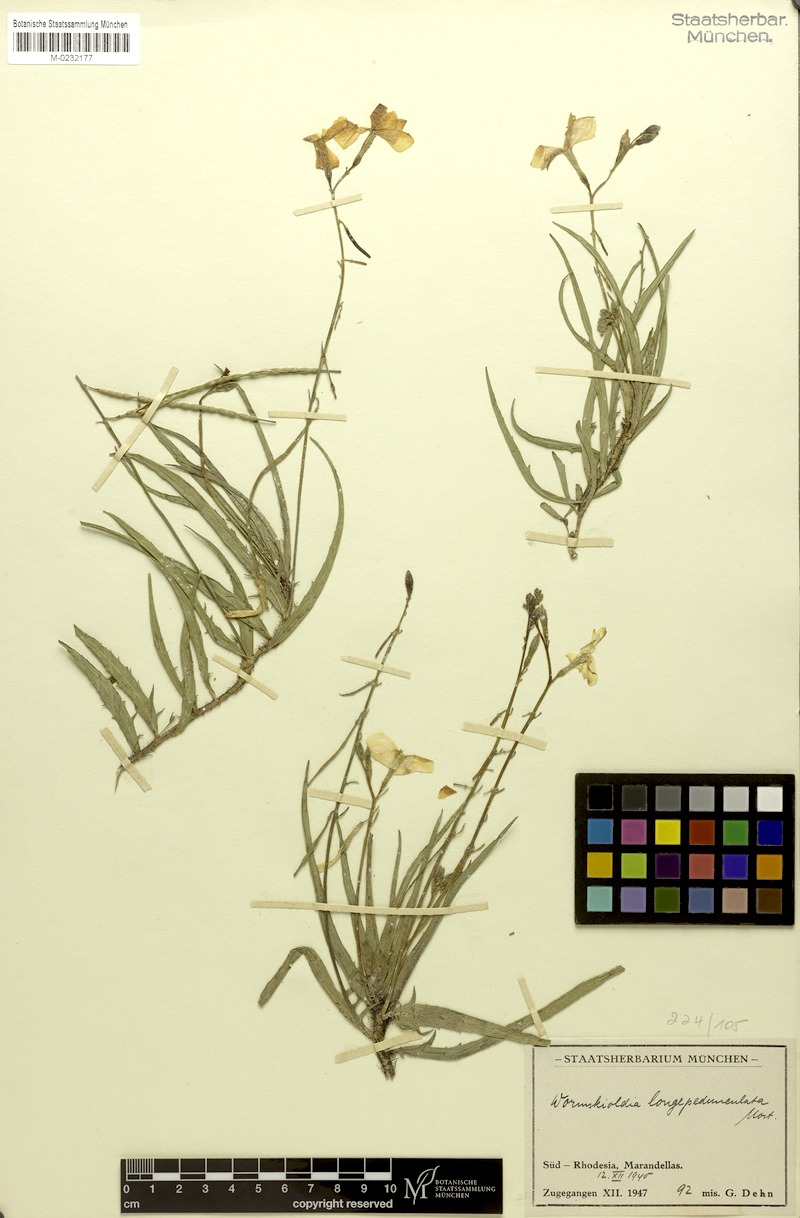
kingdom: Plantae
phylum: Tracheophyta
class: Magnoliopsida
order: Malpighiales
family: Turneraceae
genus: Tricliceras
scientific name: Tricliceras longipedunculatum
